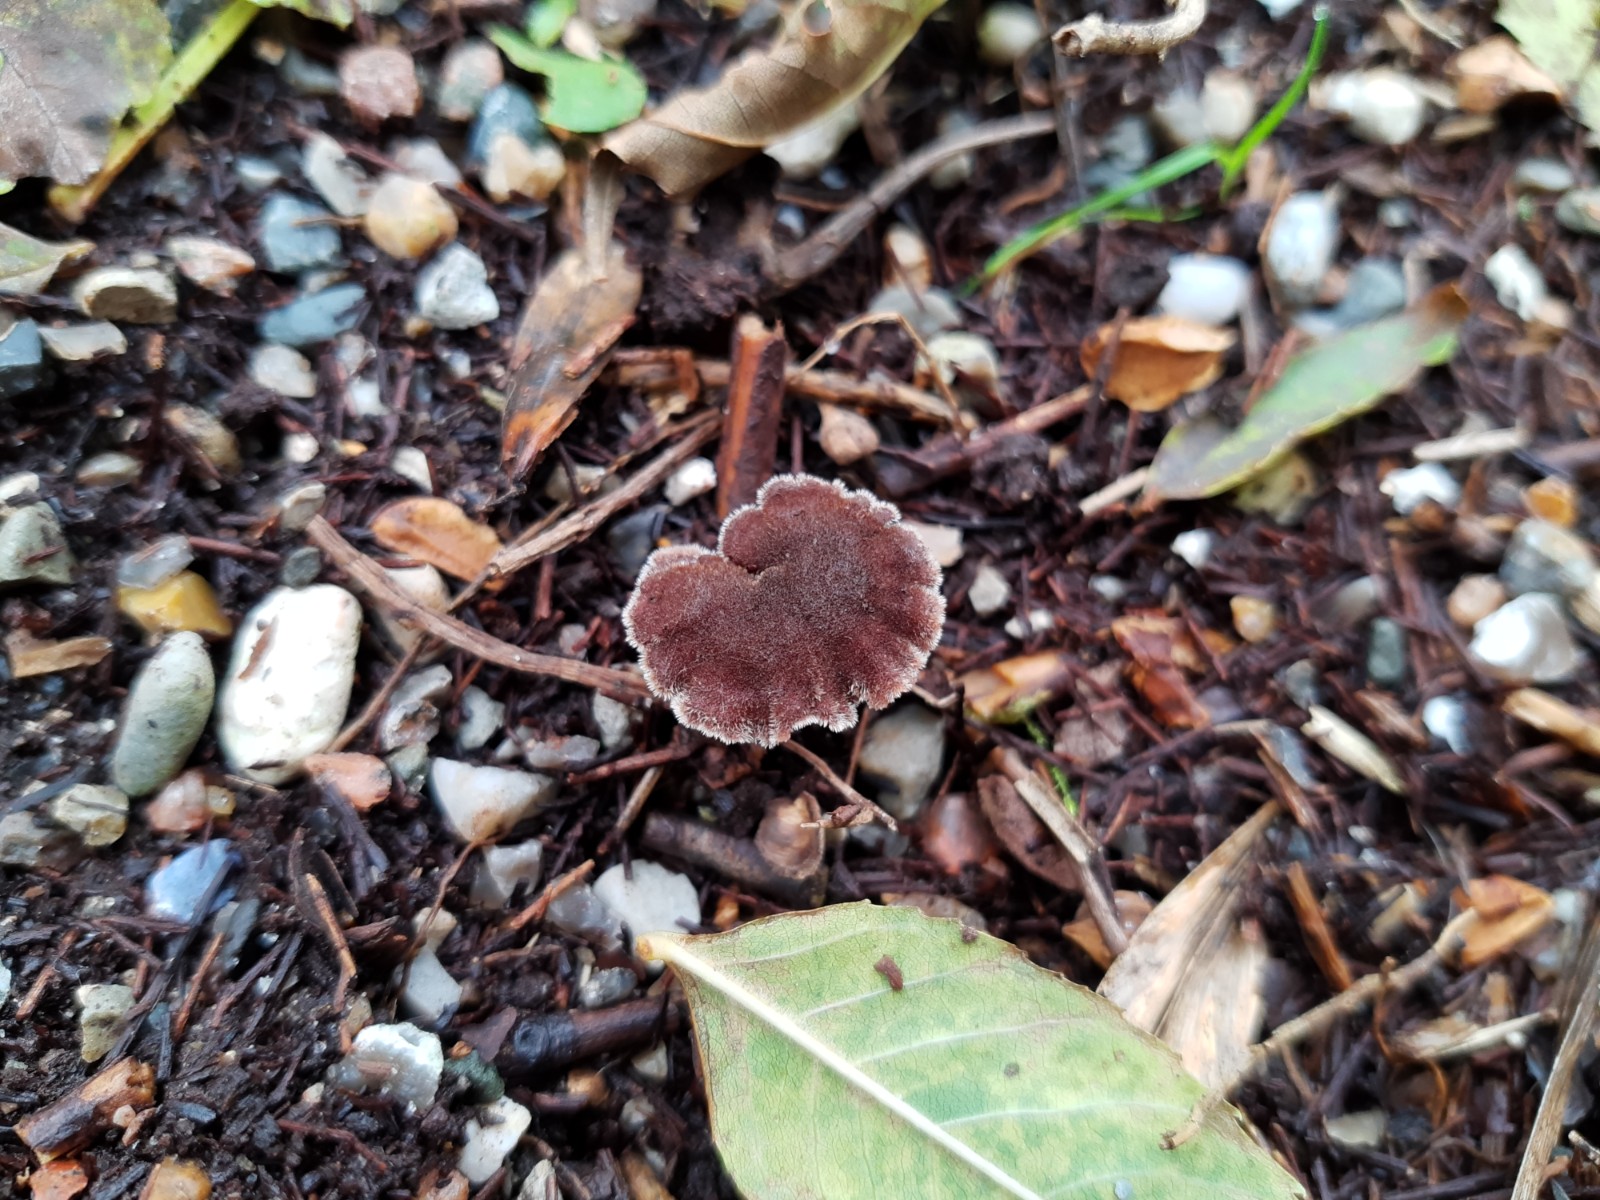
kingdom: Fungi
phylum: Basidiomycota
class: Agaricomycetes
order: Russulales
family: Auriscalpiaceae
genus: Auriscalpium
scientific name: Auriscalpium vulgare
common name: koglepigsvamp
